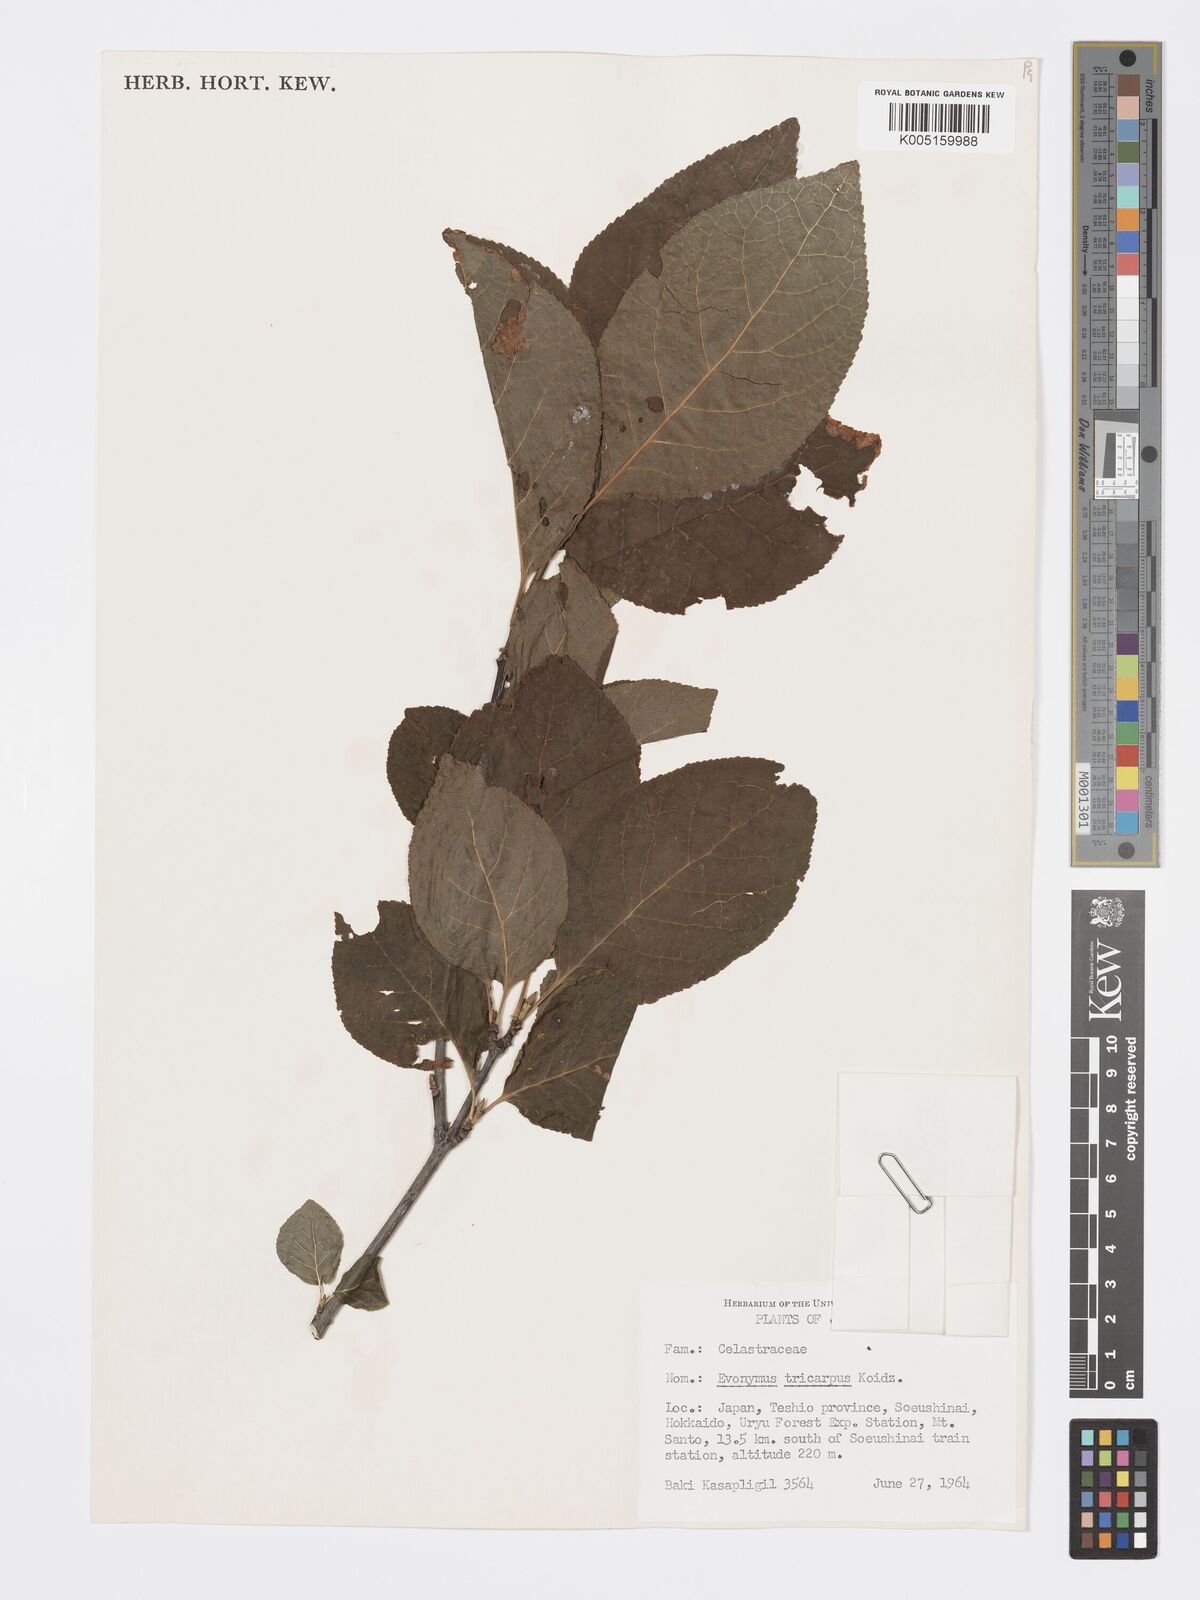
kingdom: Plantae
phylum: Tracheophyta
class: Magnoliopsida
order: Celastrales
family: Celastraceae
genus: Euonymus
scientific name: Euonymus sachalinensis
